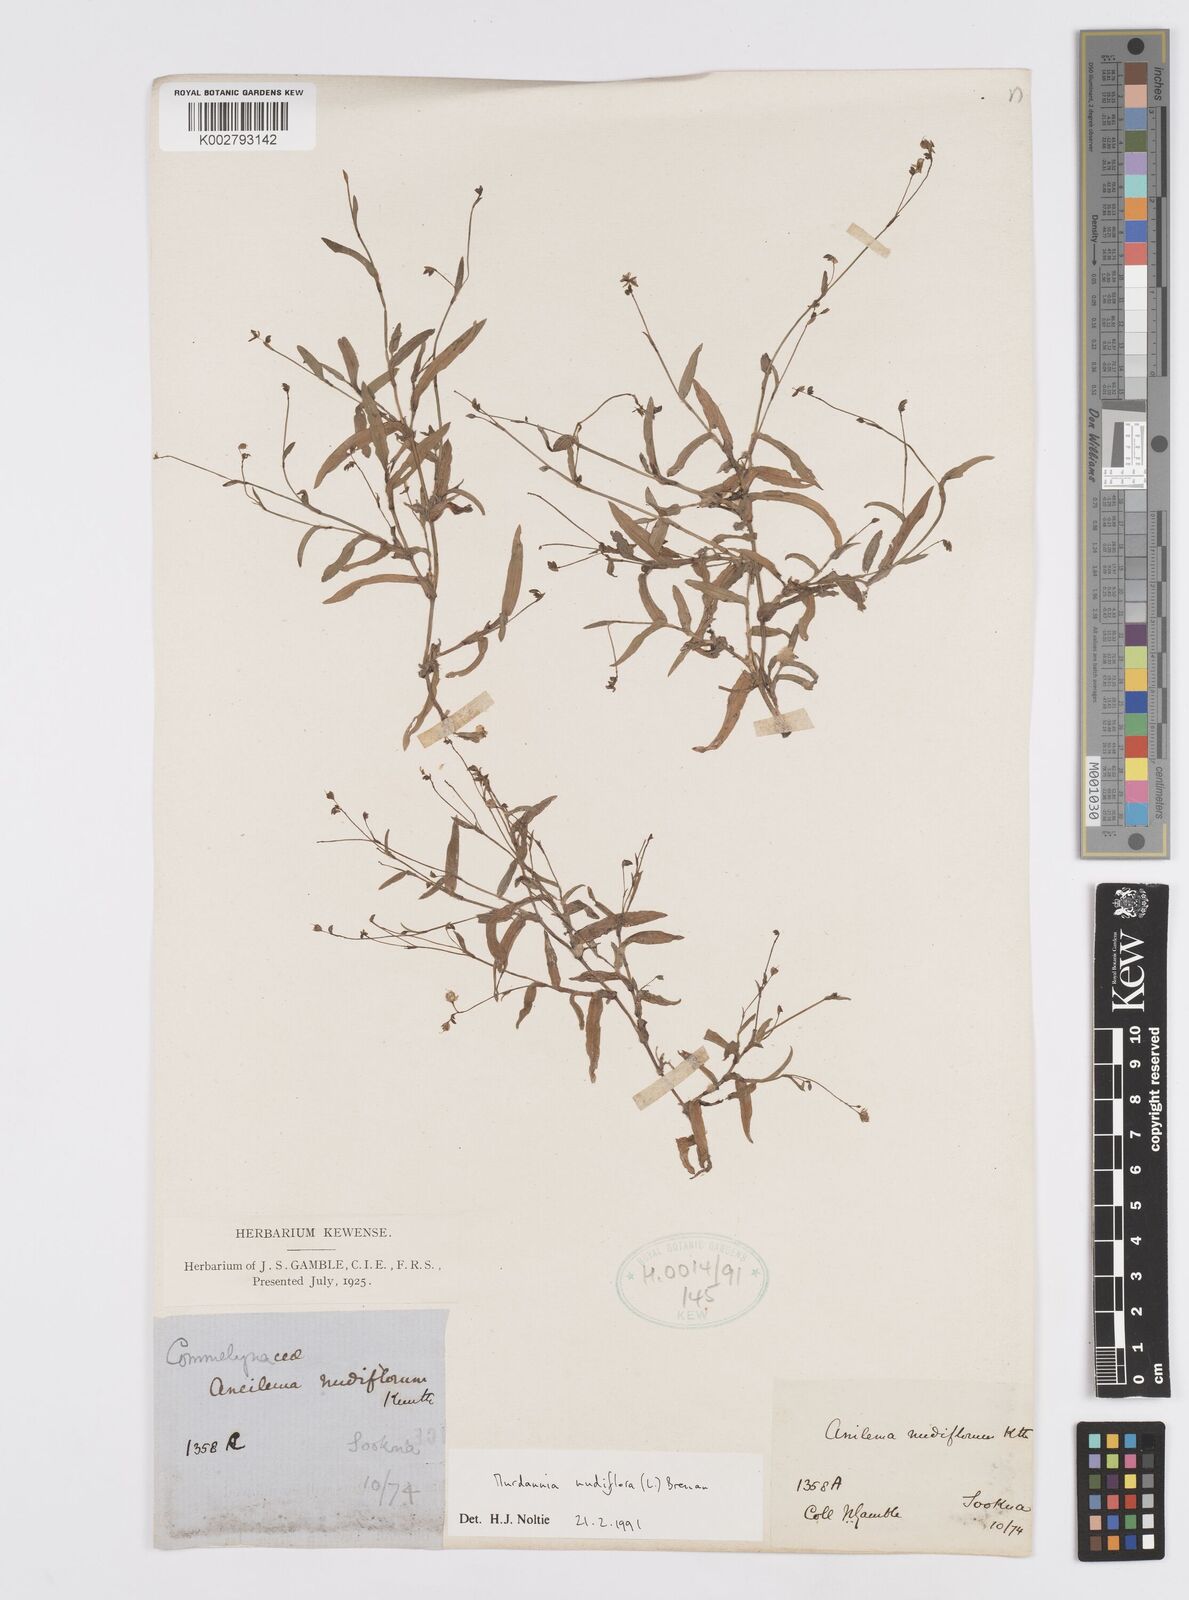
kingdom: Plantae
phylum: Tracheophyta
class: Liliopsida
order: Commelinales
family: Commelinaceae
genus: Murdannia
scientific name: Murdannia nudiflora
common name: Nakedstem dewflower
